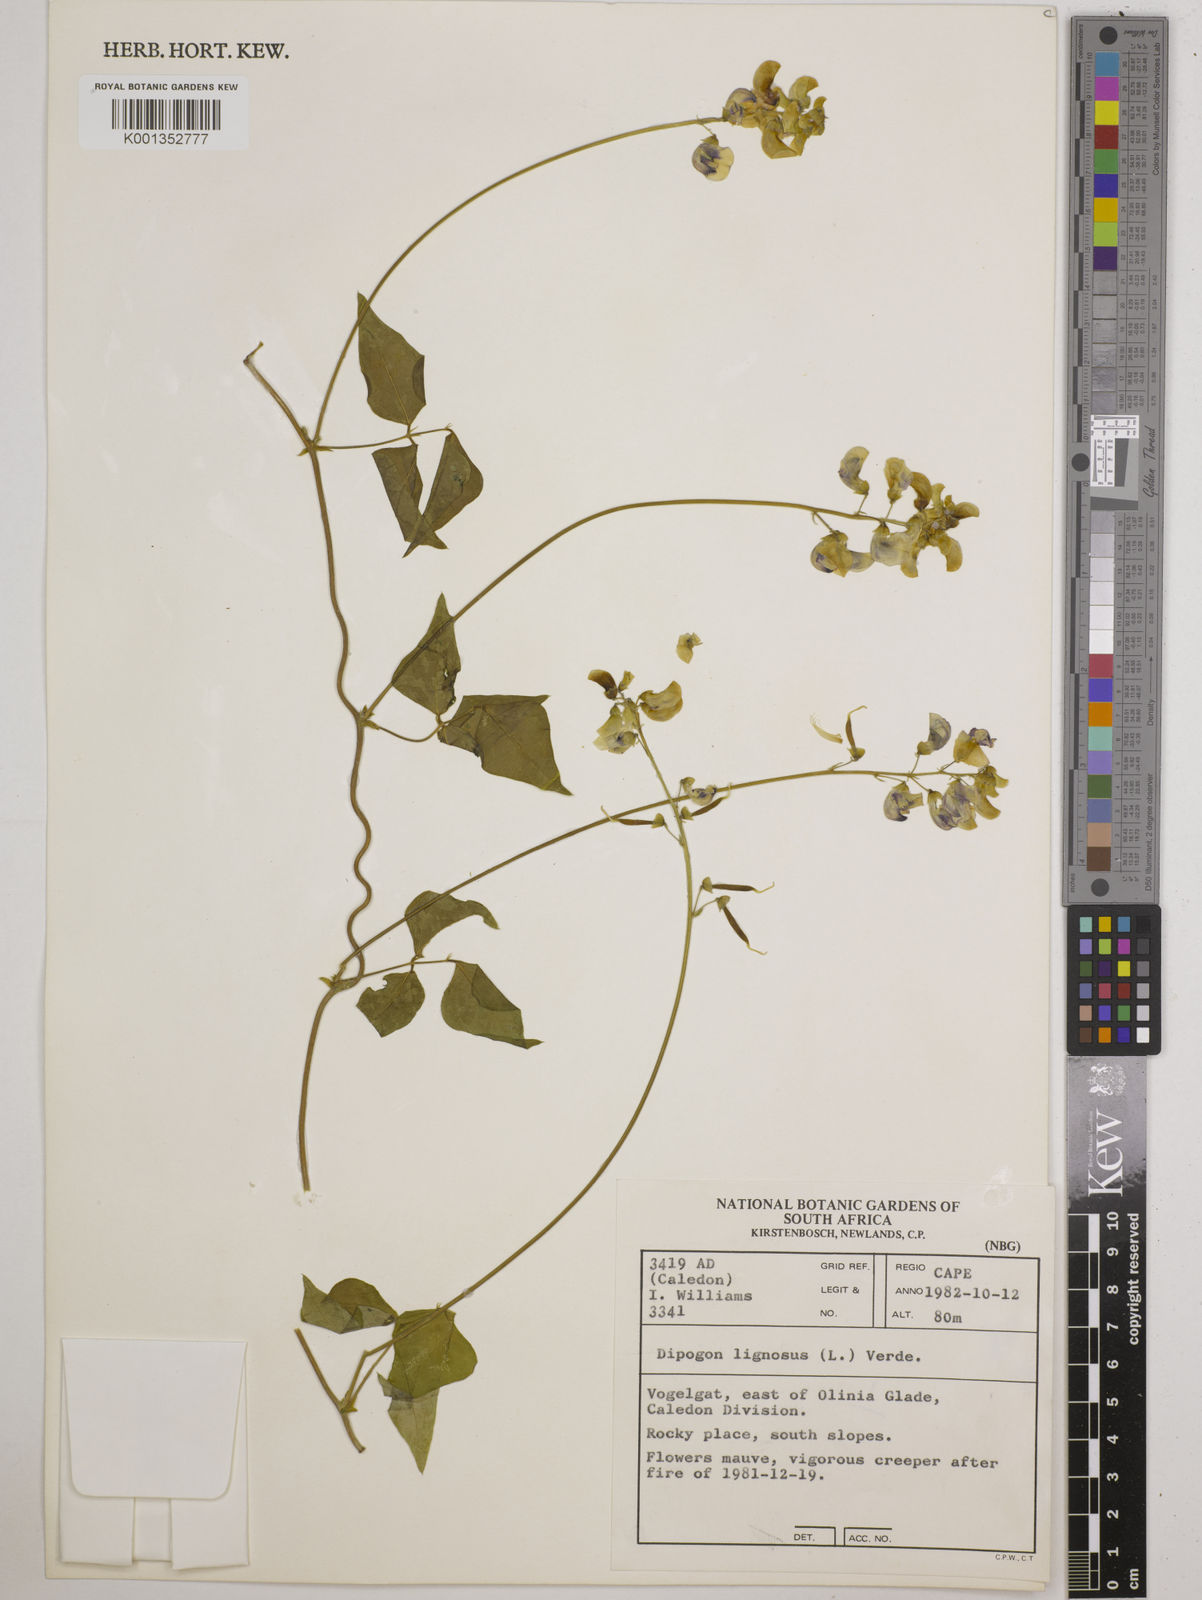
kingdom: Plantae
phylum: Tracheophyta
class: Magnoliopsida
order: Fabales
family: Fabaceae
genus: Dipogon
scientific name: Dipogon lignosus
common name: Okie bean
